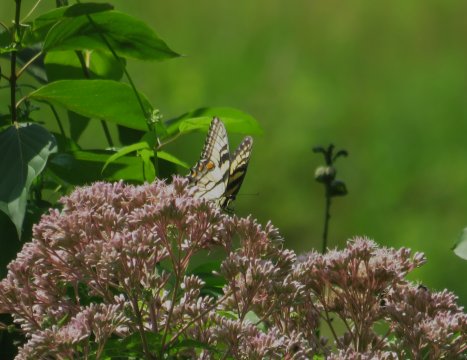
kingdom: Animalia
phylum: Arthropoda
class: Insecta
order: Lepidoptera
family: Papilionidae
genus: Pterourus
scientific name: Pterourus glaucus
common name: Eastern Tiger Swallowtail
